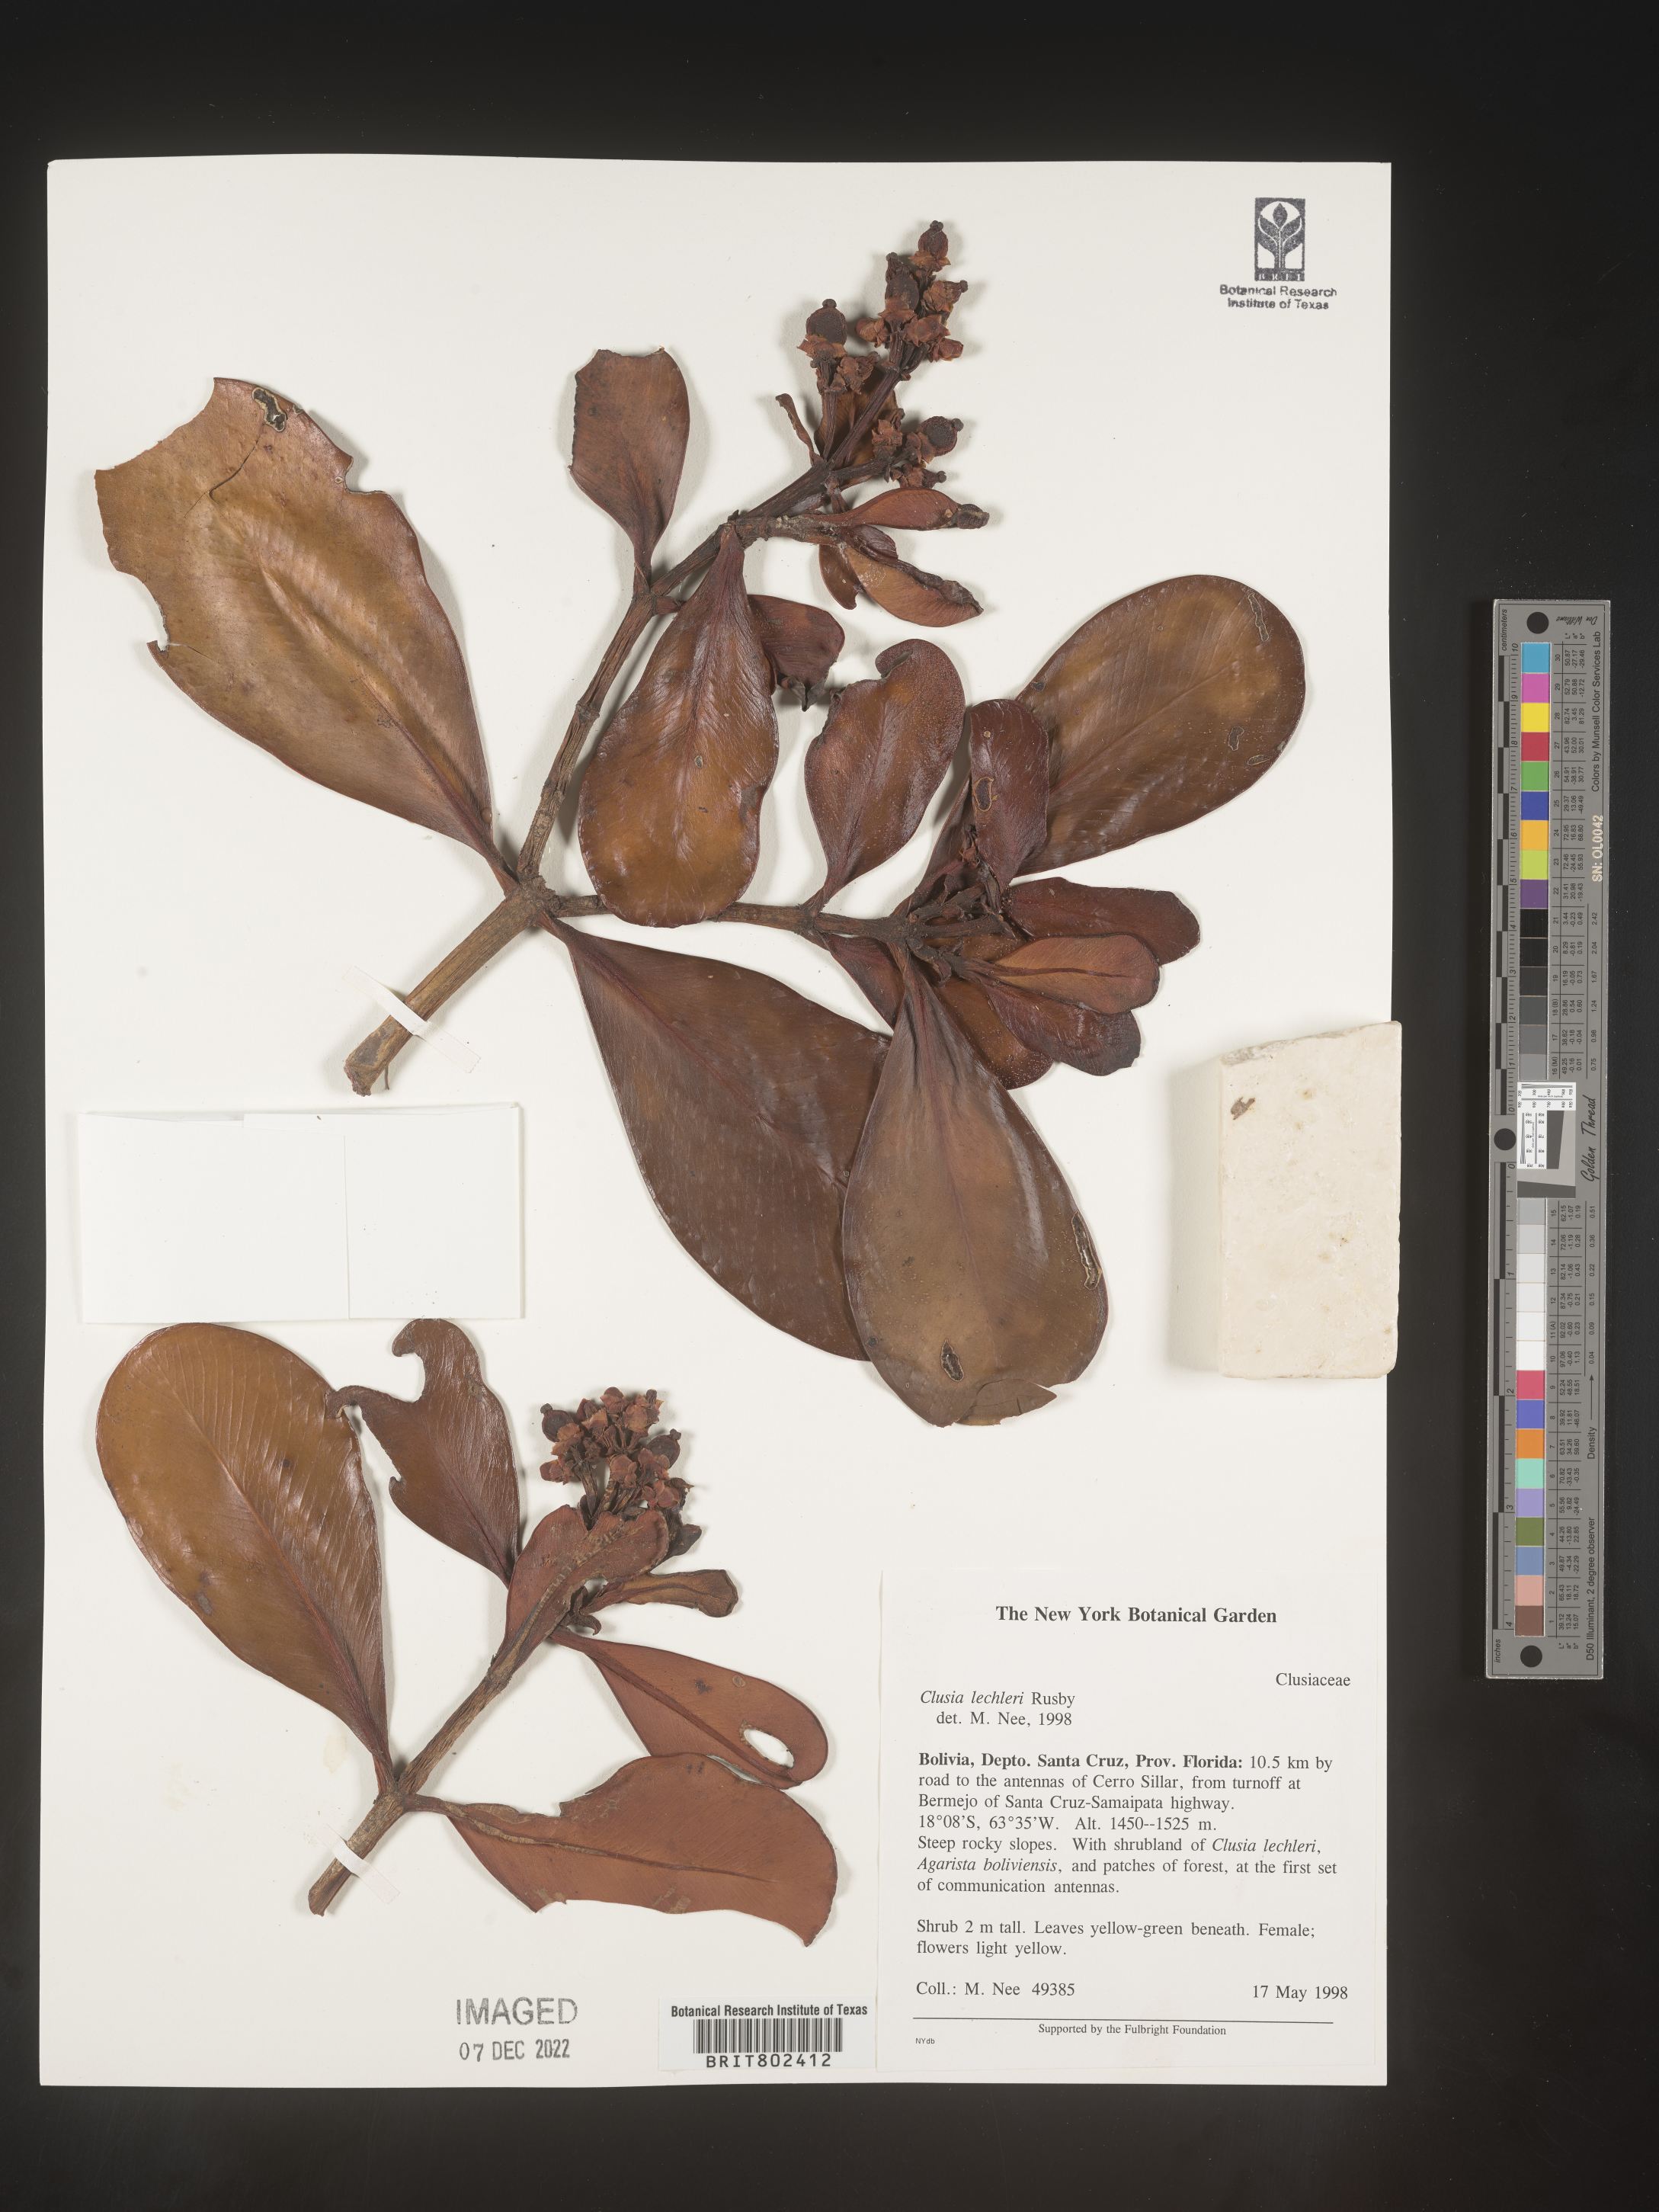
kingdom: Plantae
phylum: Tracheophyta
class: Magnoliopsida
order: Malpighiales
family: Clusiaceae
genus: Clusia
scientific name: Clusia
